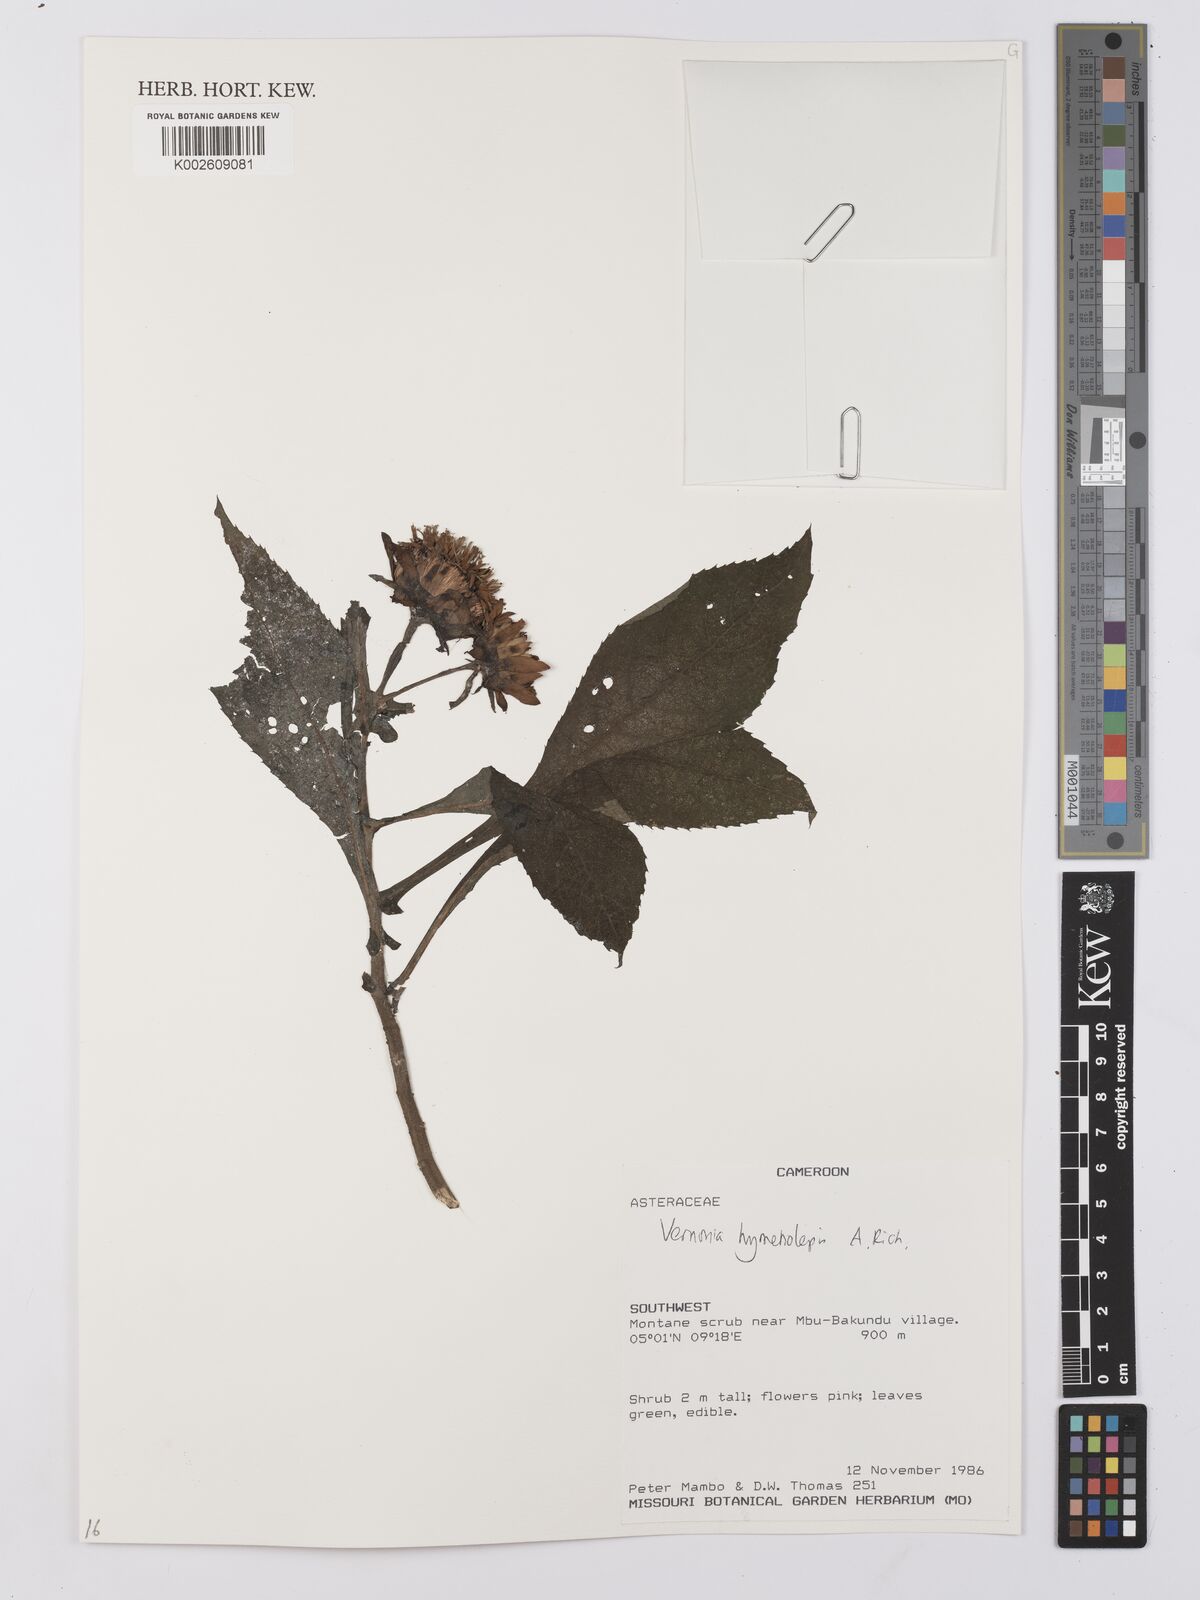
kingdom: Plantae
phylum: Tracheophyta
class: Magnoliopsida
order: Asterales
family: Asteraceae
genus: Baccharoides
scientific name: Baccharoides hymenolepis
